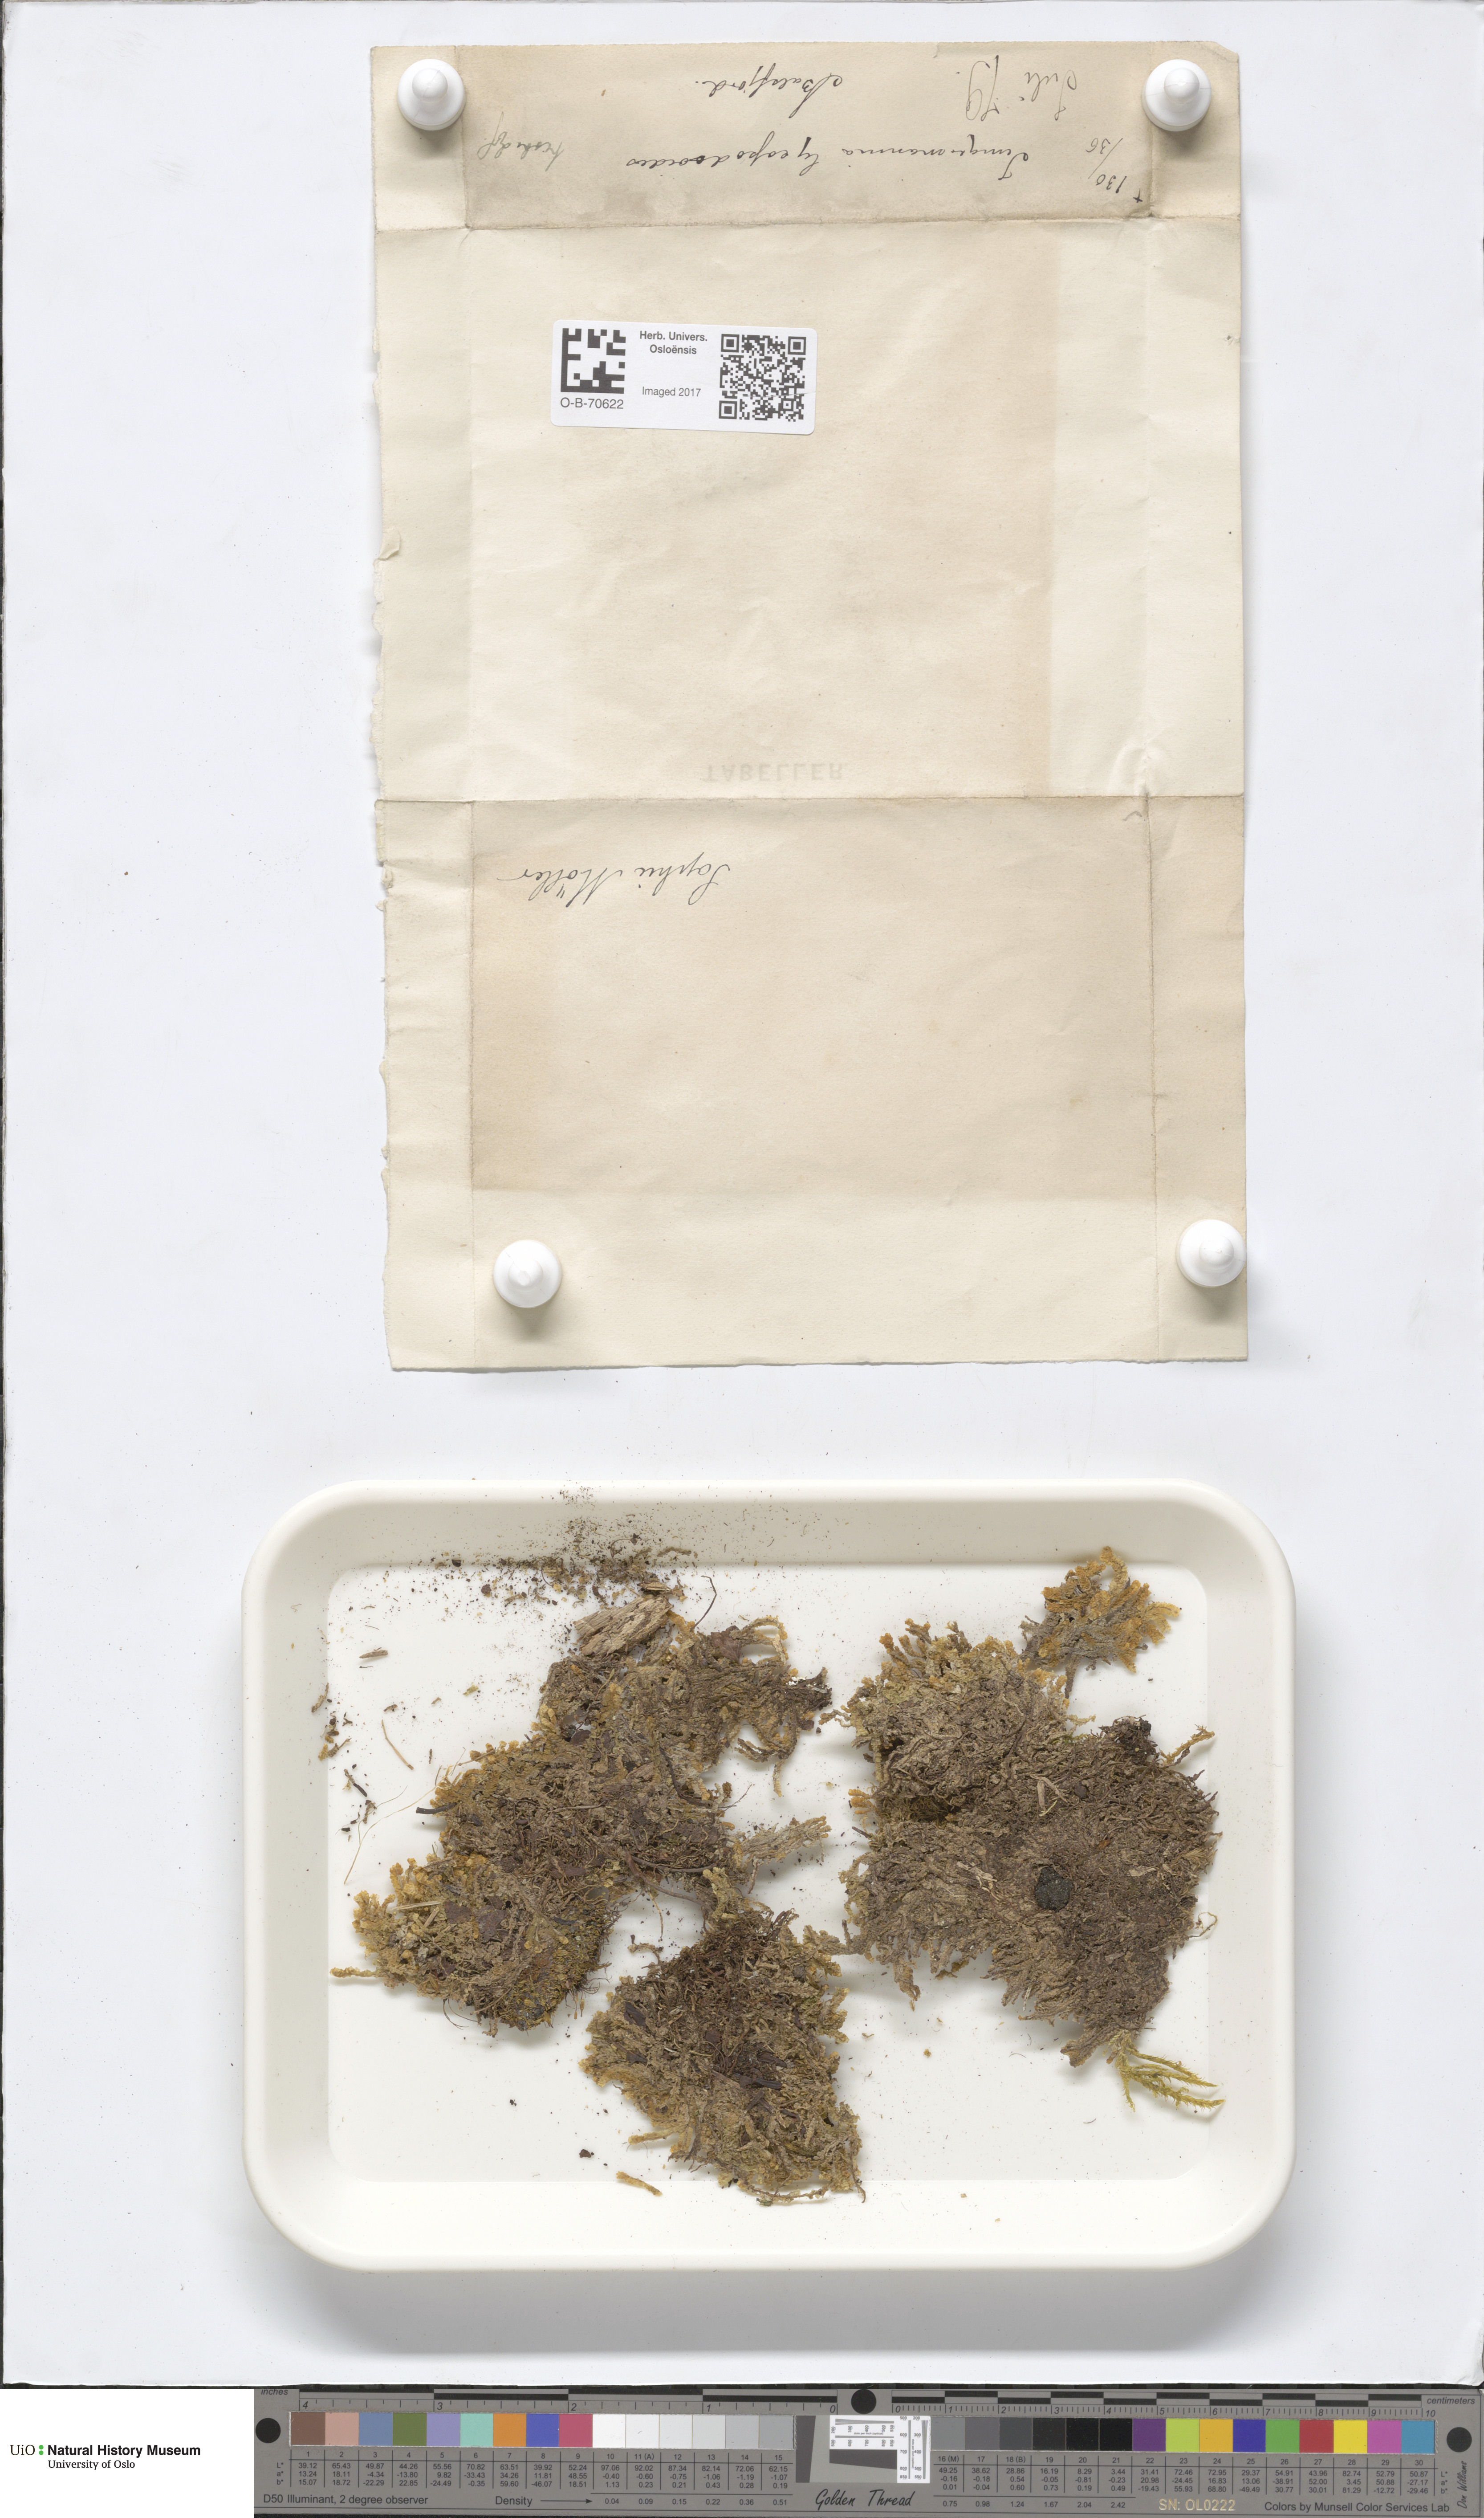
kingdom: Plantae
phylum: Marchantiophyta
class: Jungermanniopsida
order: Jungermanniales
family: Anastrophyllaceae
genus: Barbilophozia
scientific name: Barbilophozia lycopodioides
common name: Greater pawwort
